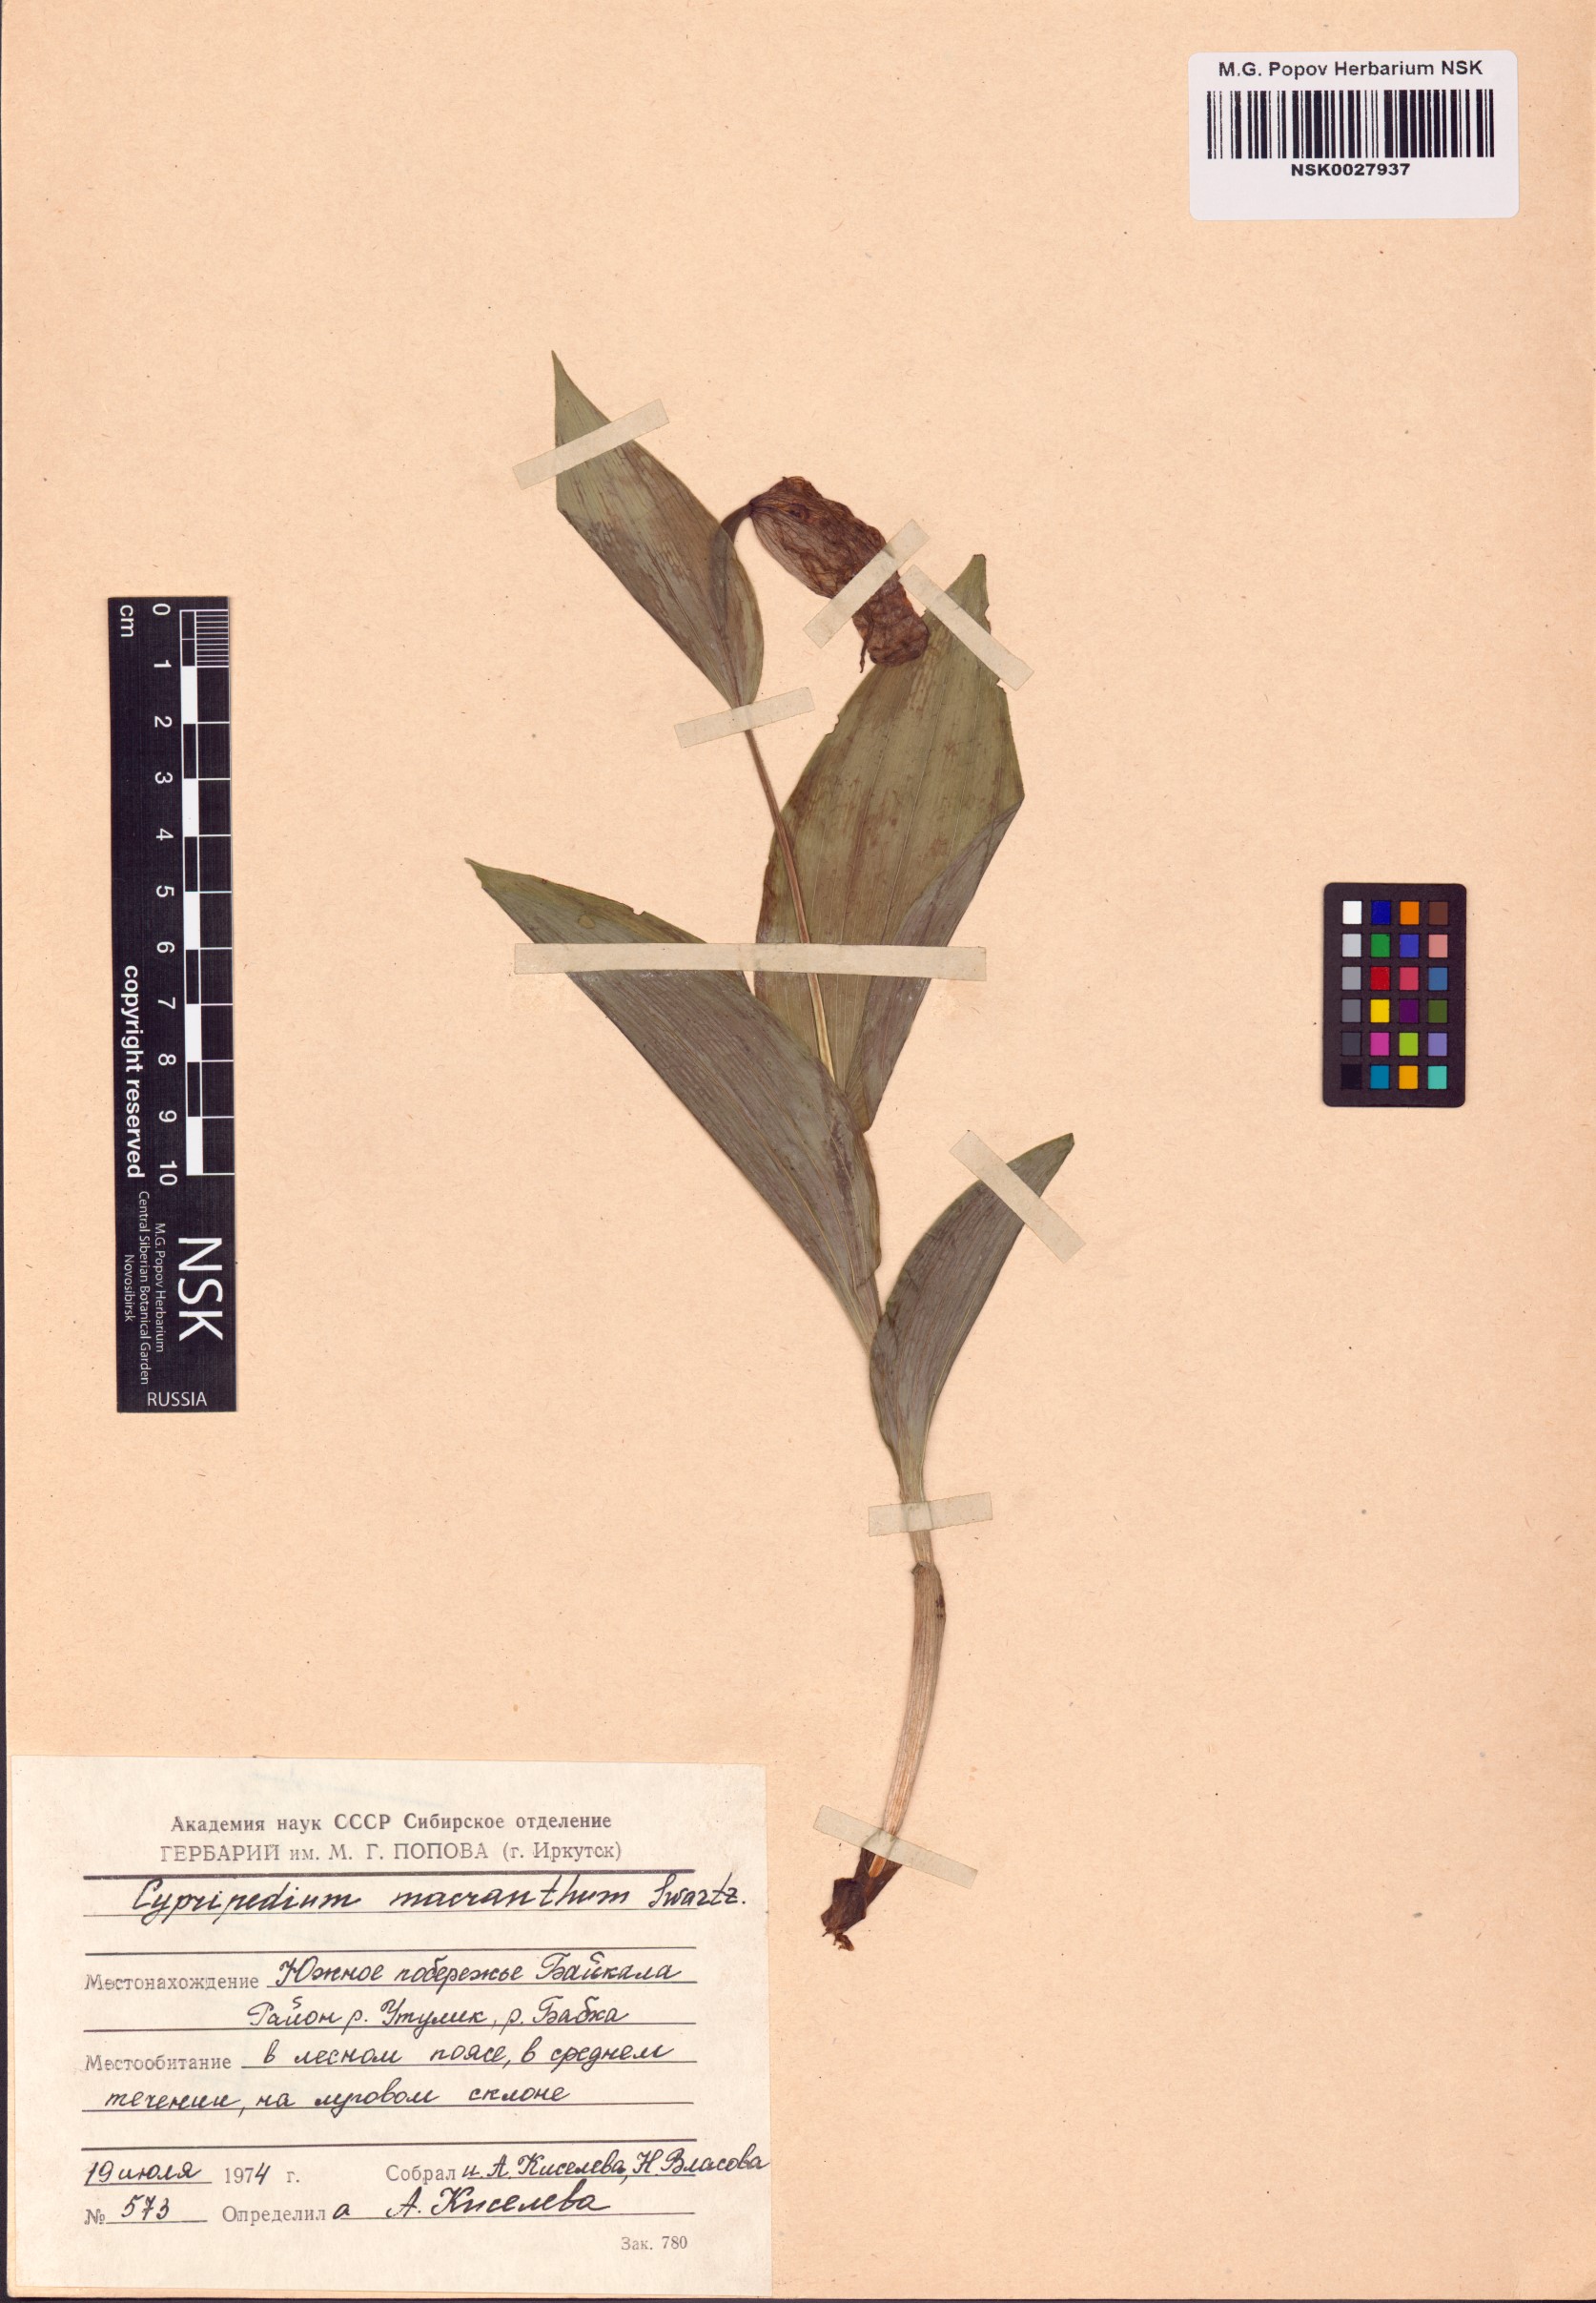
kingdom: Plantae
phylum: Tracheophyta
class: Liliopsida
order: Asparagales
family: Orchidaceae
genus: Cypripedium
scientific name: Cypripedium macranthos
